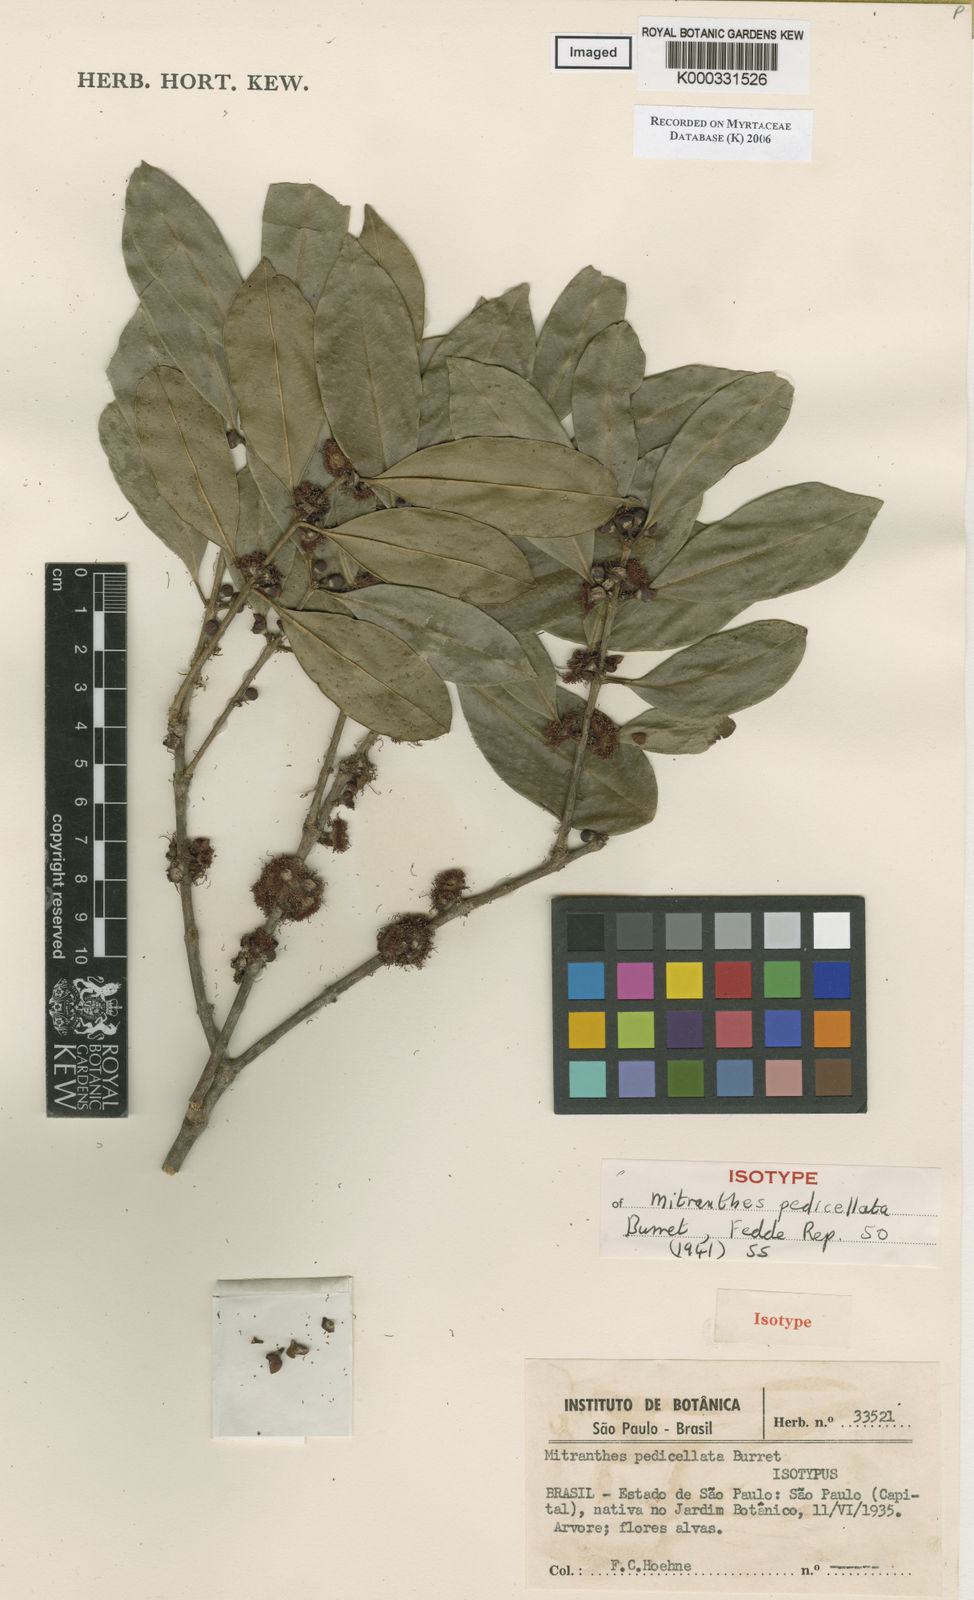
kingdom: Plantae
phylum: Tracheophyta
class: Magnoliopsida
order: Myrtales
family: Myrtaceae
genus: Neomitranthes
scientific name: Neomitranthes pedicellata
